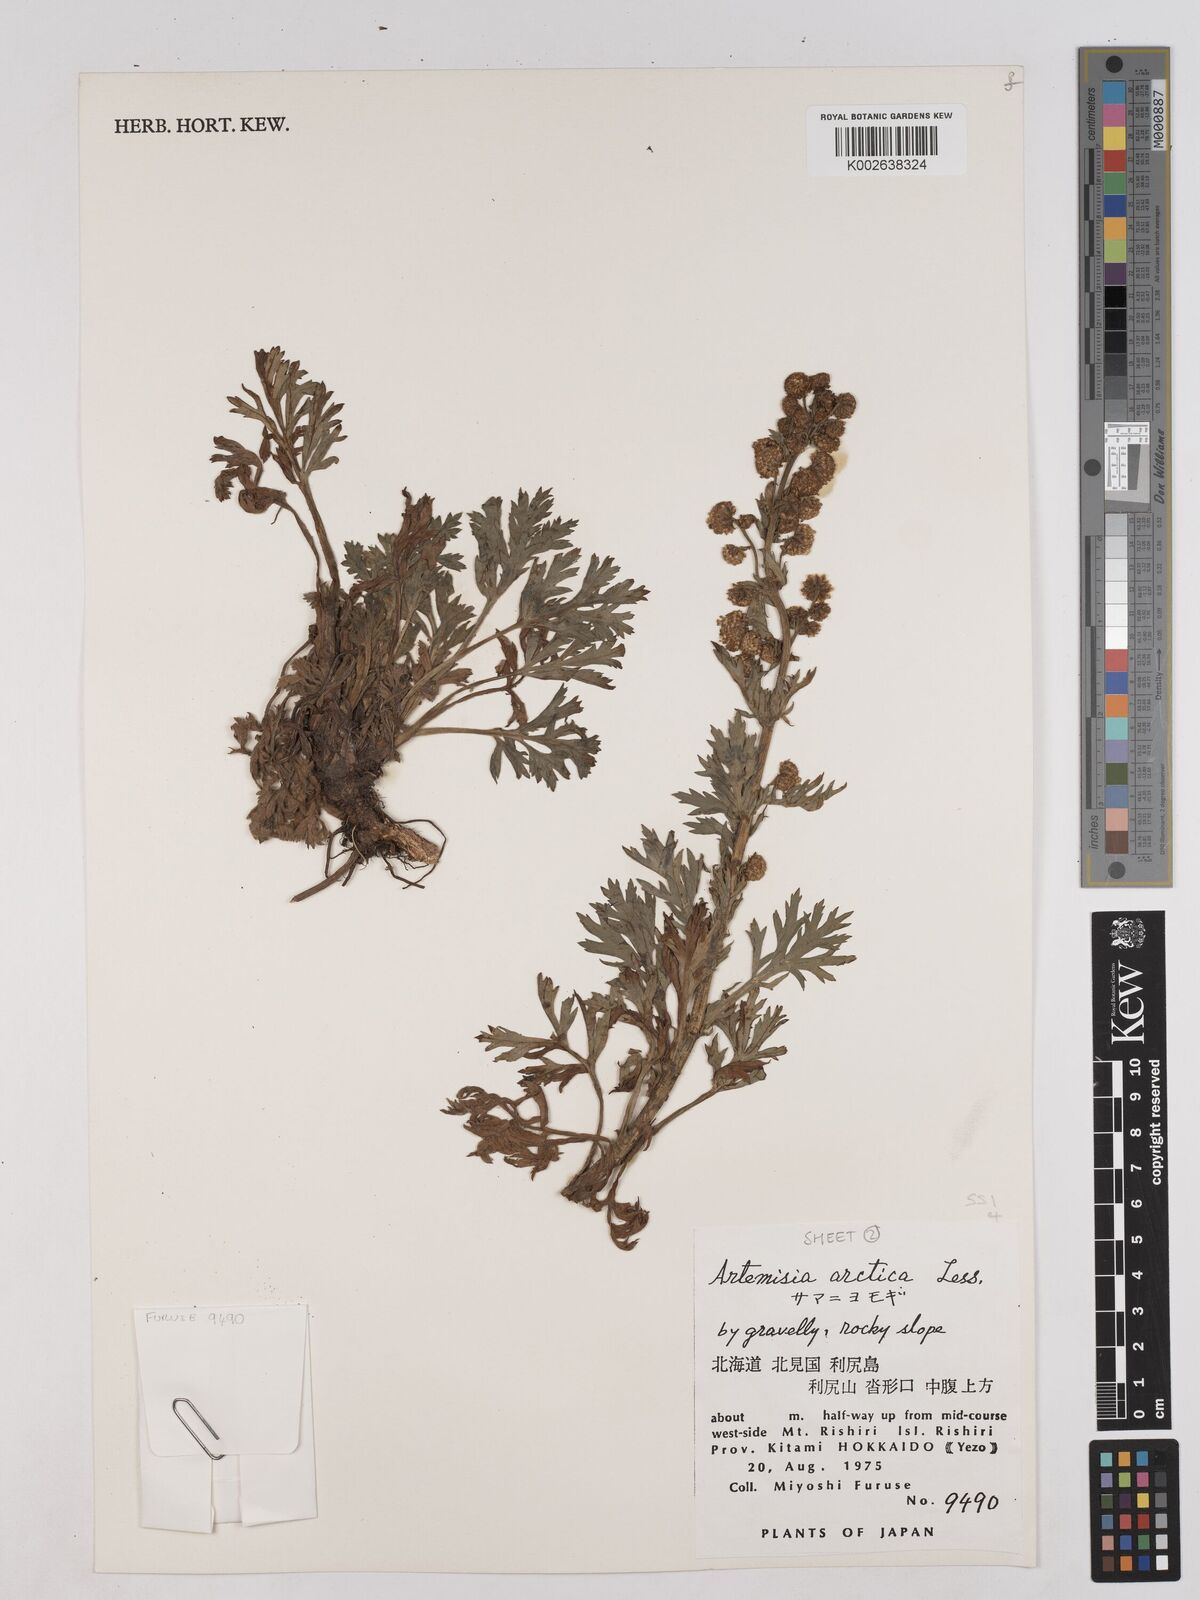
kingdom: Plantae
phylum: Tracheophyta
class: Magnoliopsida
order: Asterales
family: Asteraceae
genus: Artemisia
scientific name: Artemisia norvegica
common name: Norwegian mugwort
